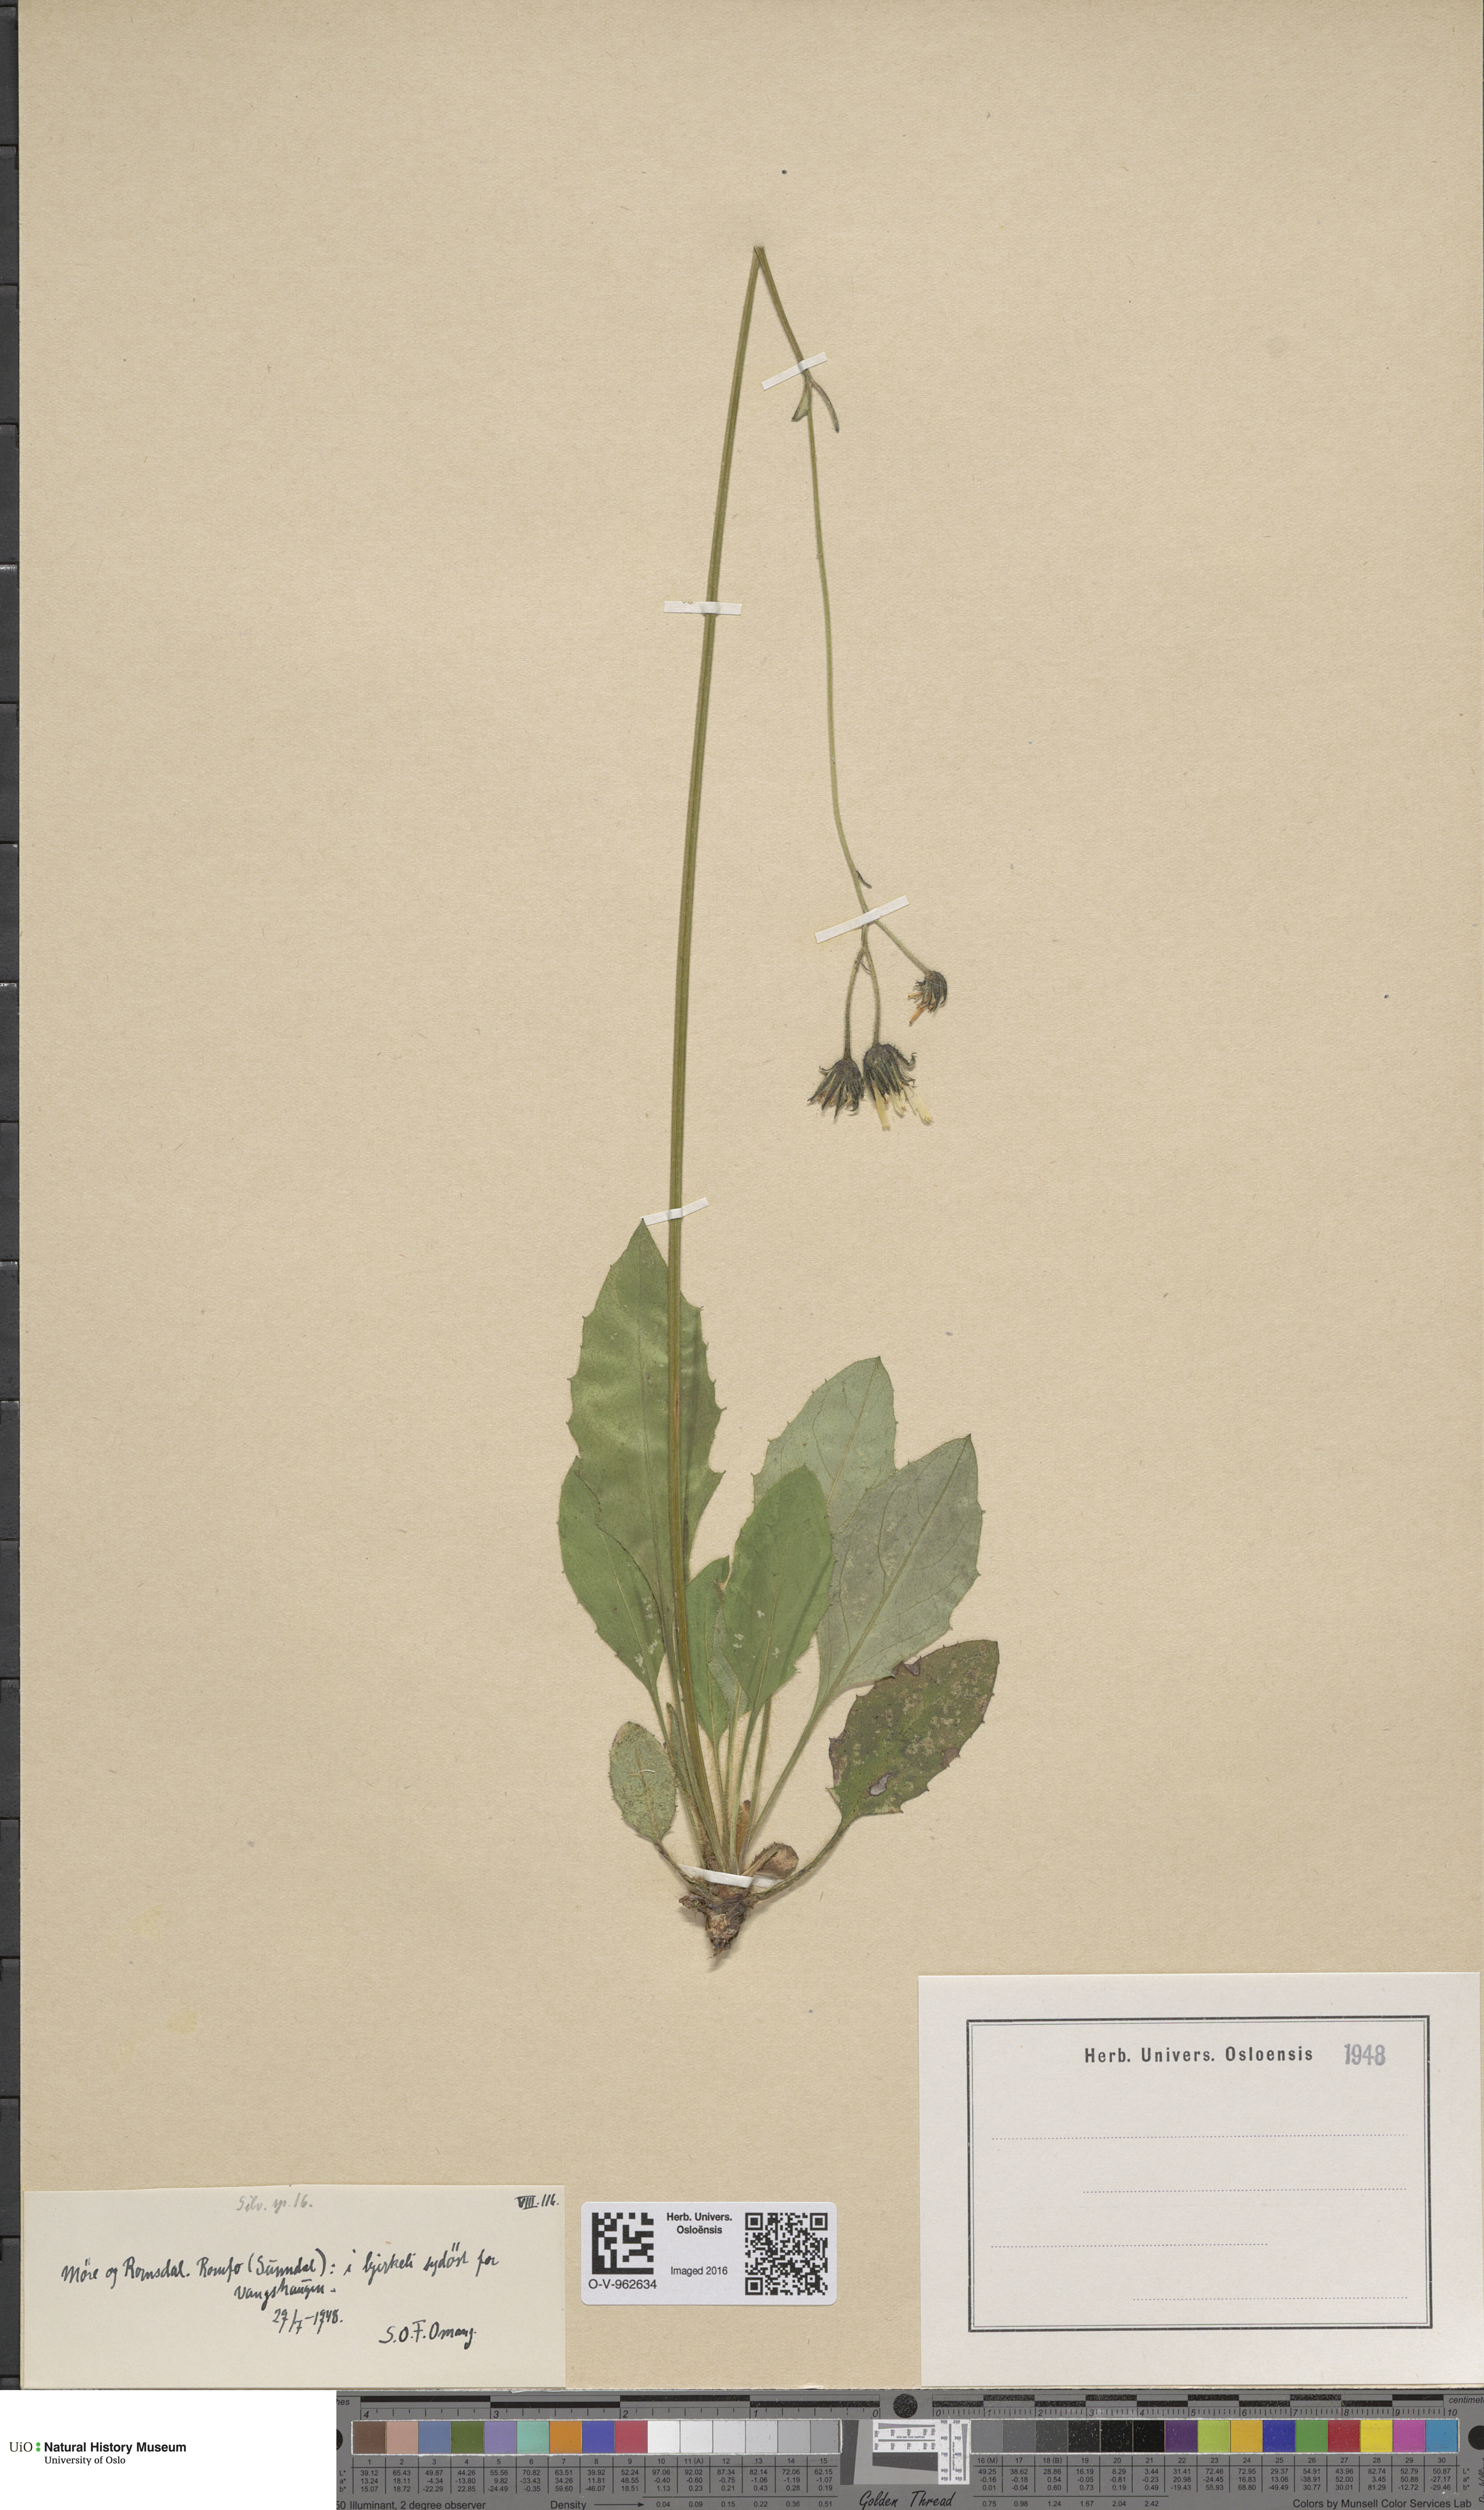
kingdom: Plantae
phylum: Tracheophyta
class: Magnoliopsida
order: Asterales
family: Asteraceae
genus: Hieracium
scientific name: Hieracium
